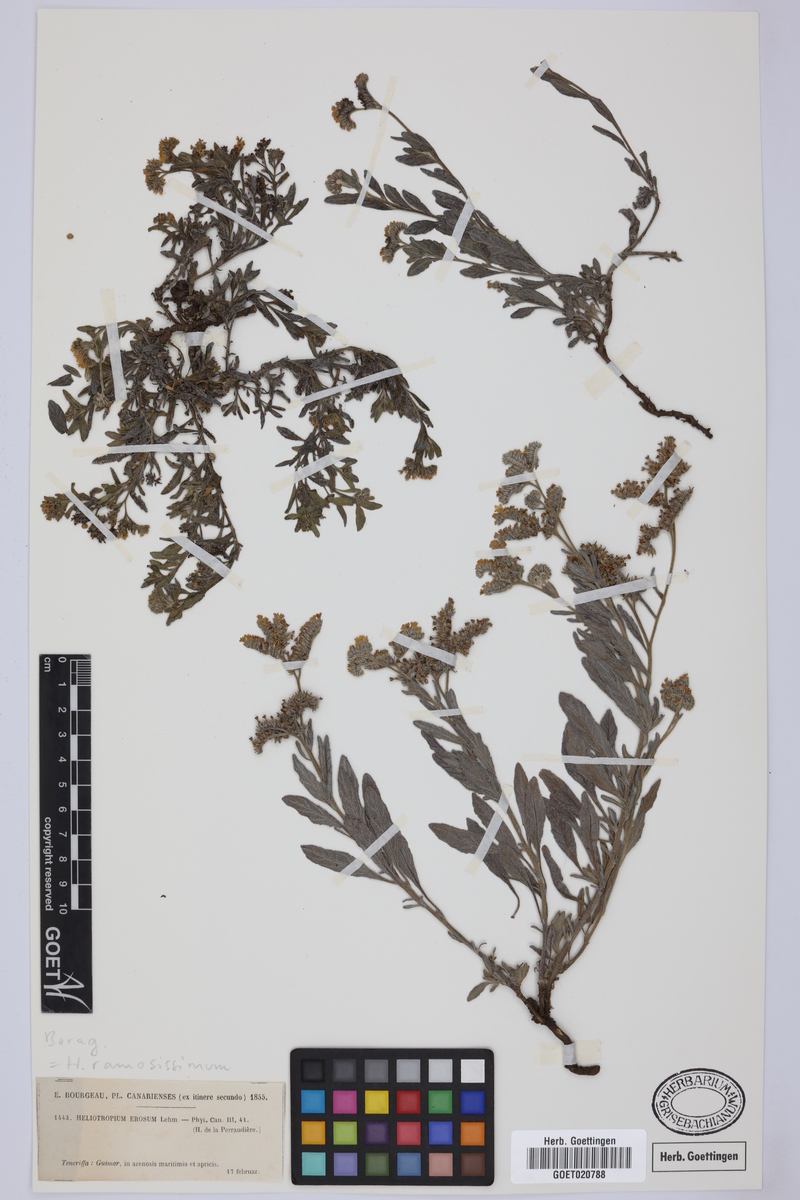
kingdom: Plantae
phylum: Tracheophyta
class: Magnoliopsida
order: Boraginales
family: Heliotropiaceae
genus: Heliotropium
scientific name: Heliotropium crispum
